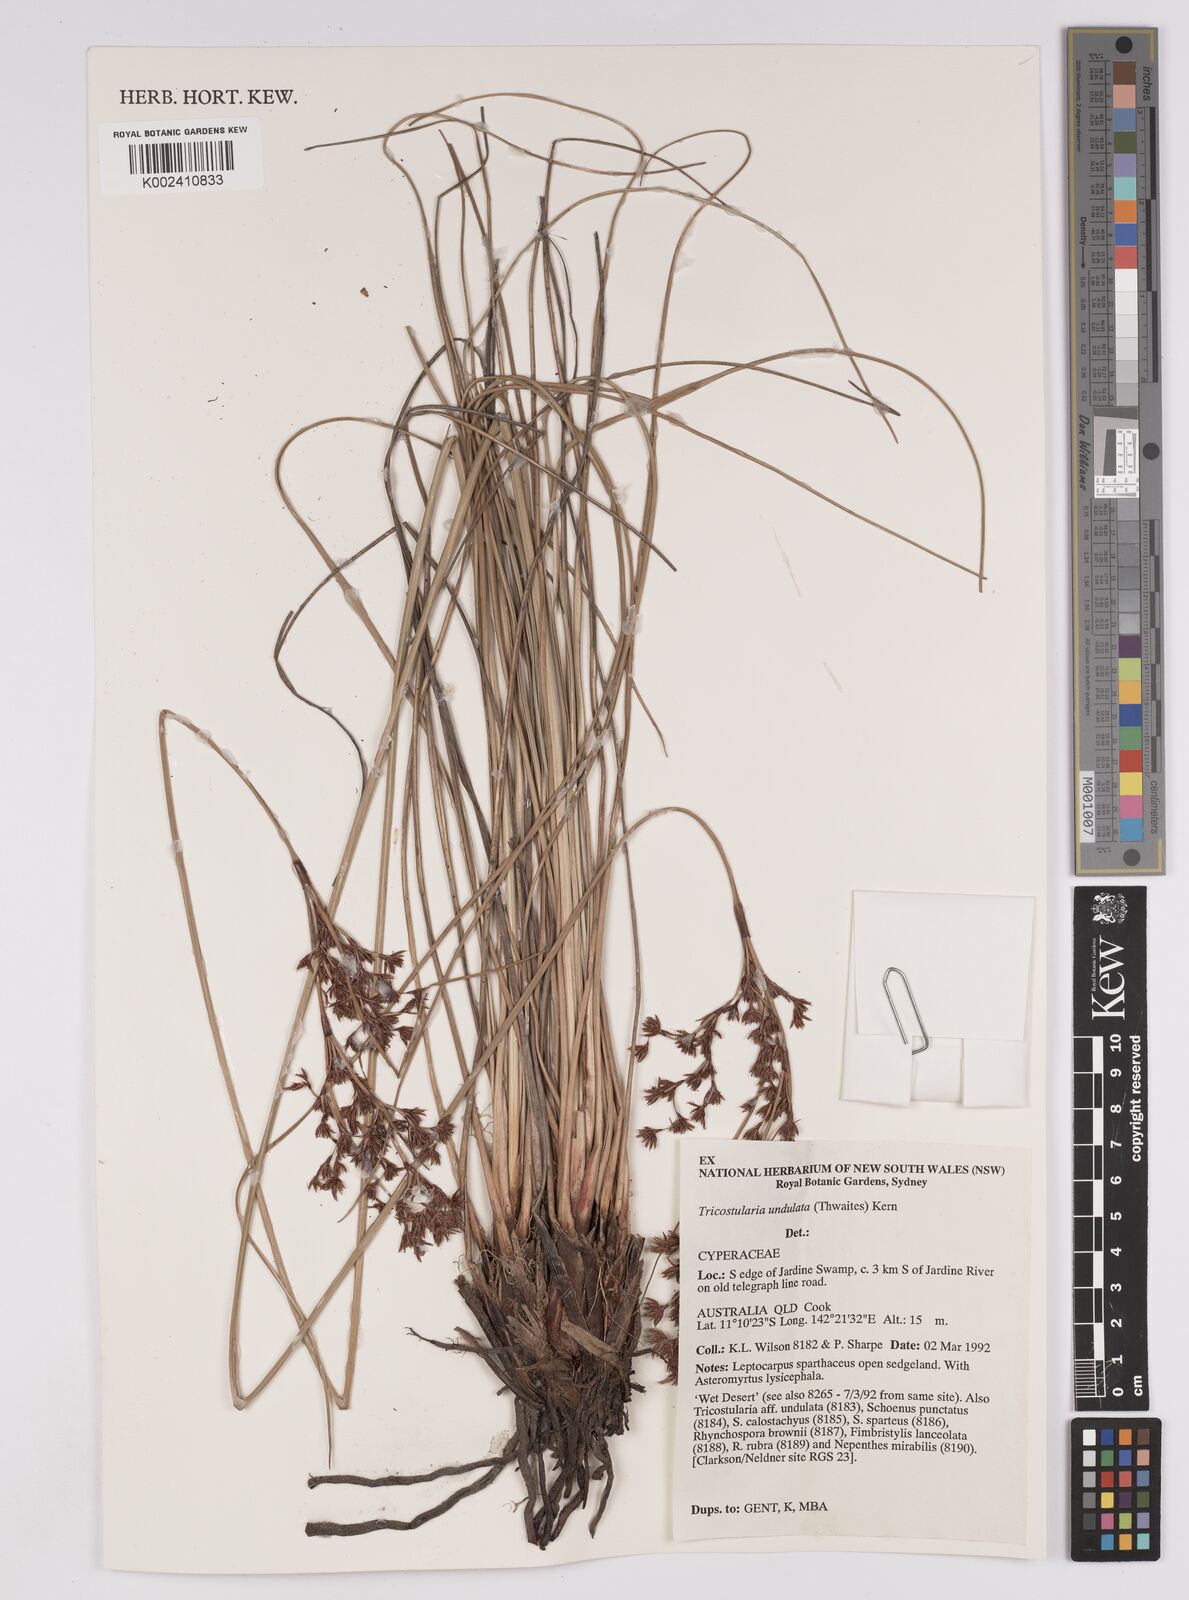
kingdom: Plantae
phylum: Tracheophyta
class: Liliopsida
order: Poales
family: Cyperaceae
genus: Anthelepis
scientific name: Anthelepis undulata
